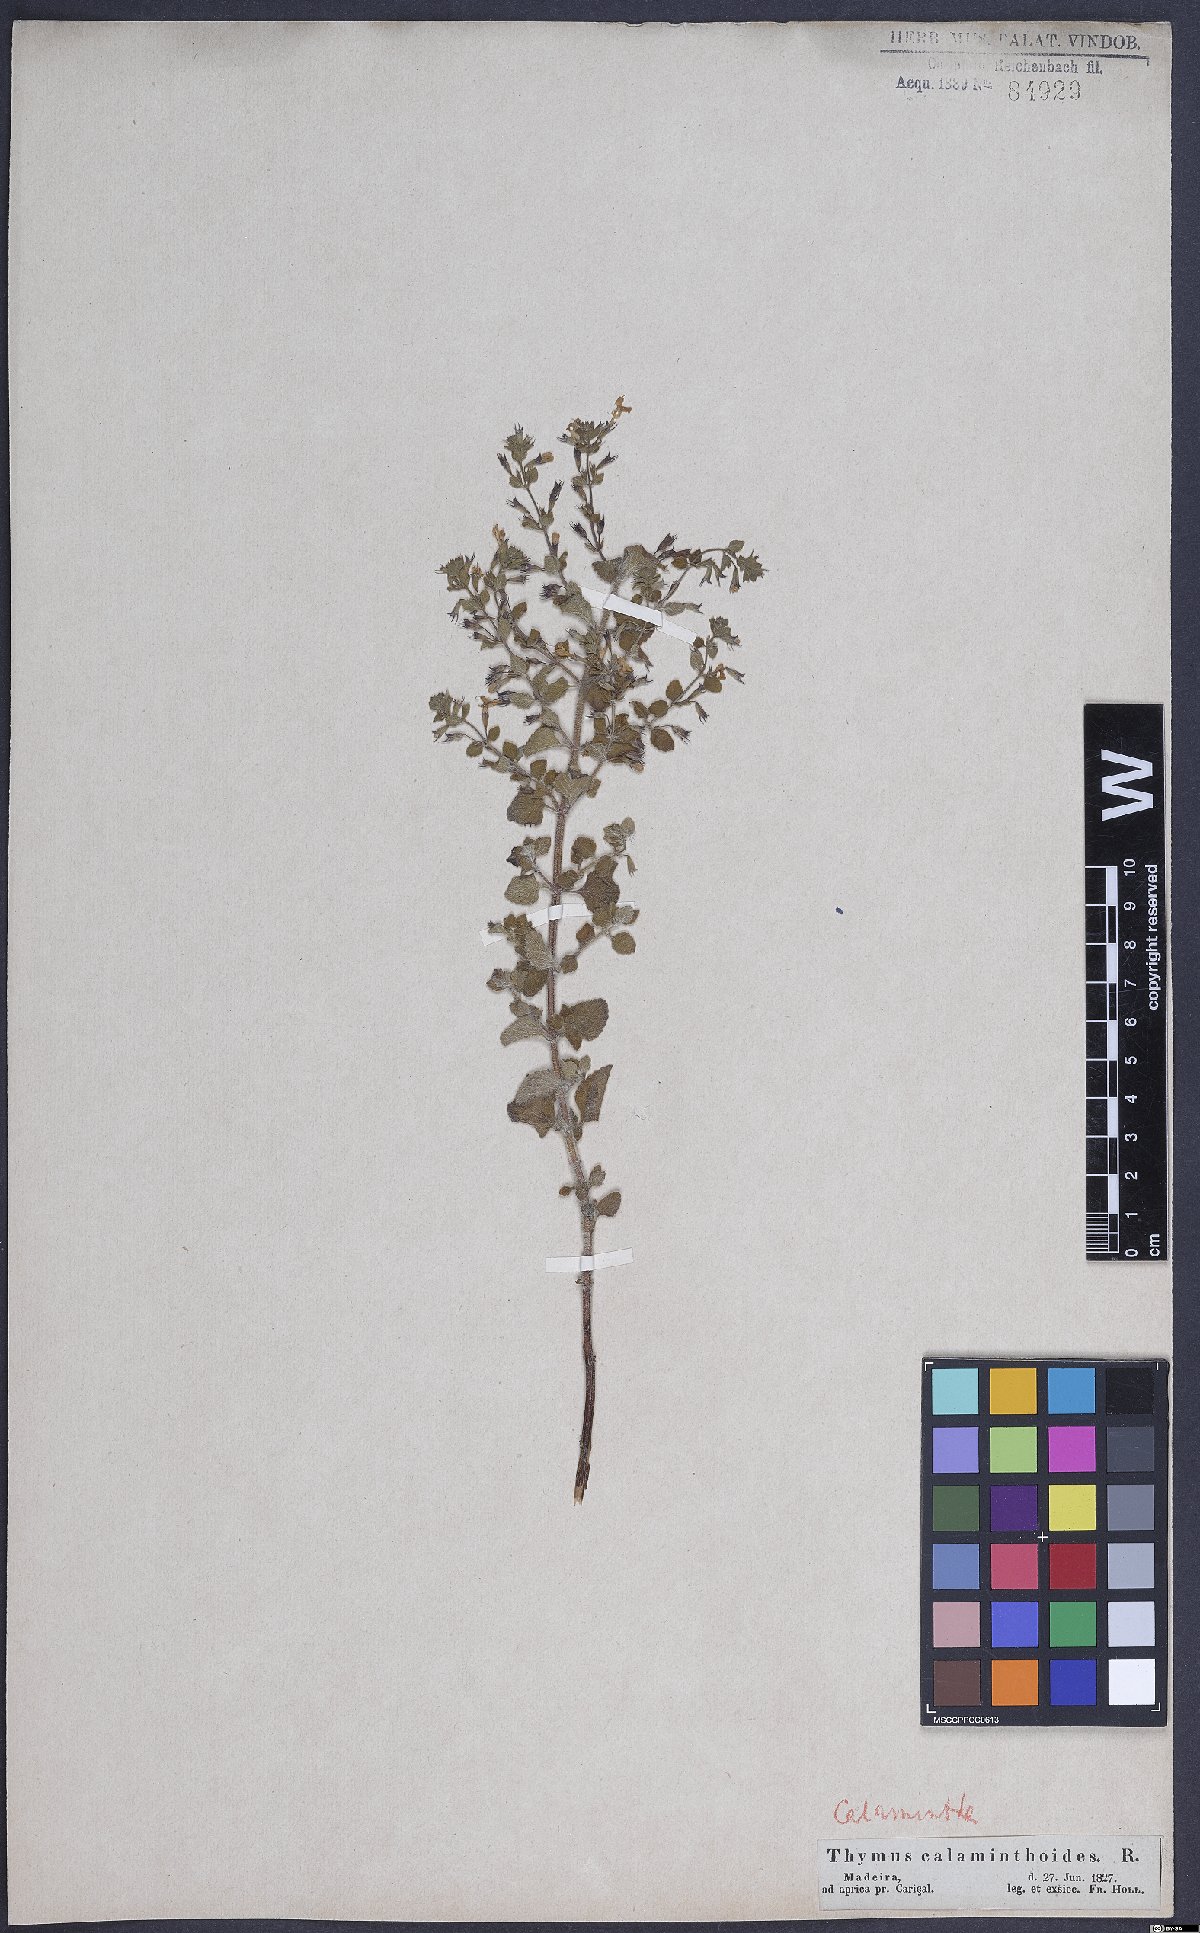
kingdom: Plantae
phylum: Tracheophyta
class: Magnoliopsida
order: Lamiales
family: Lamiaceae
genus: Calamintha
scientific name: Calamintha
